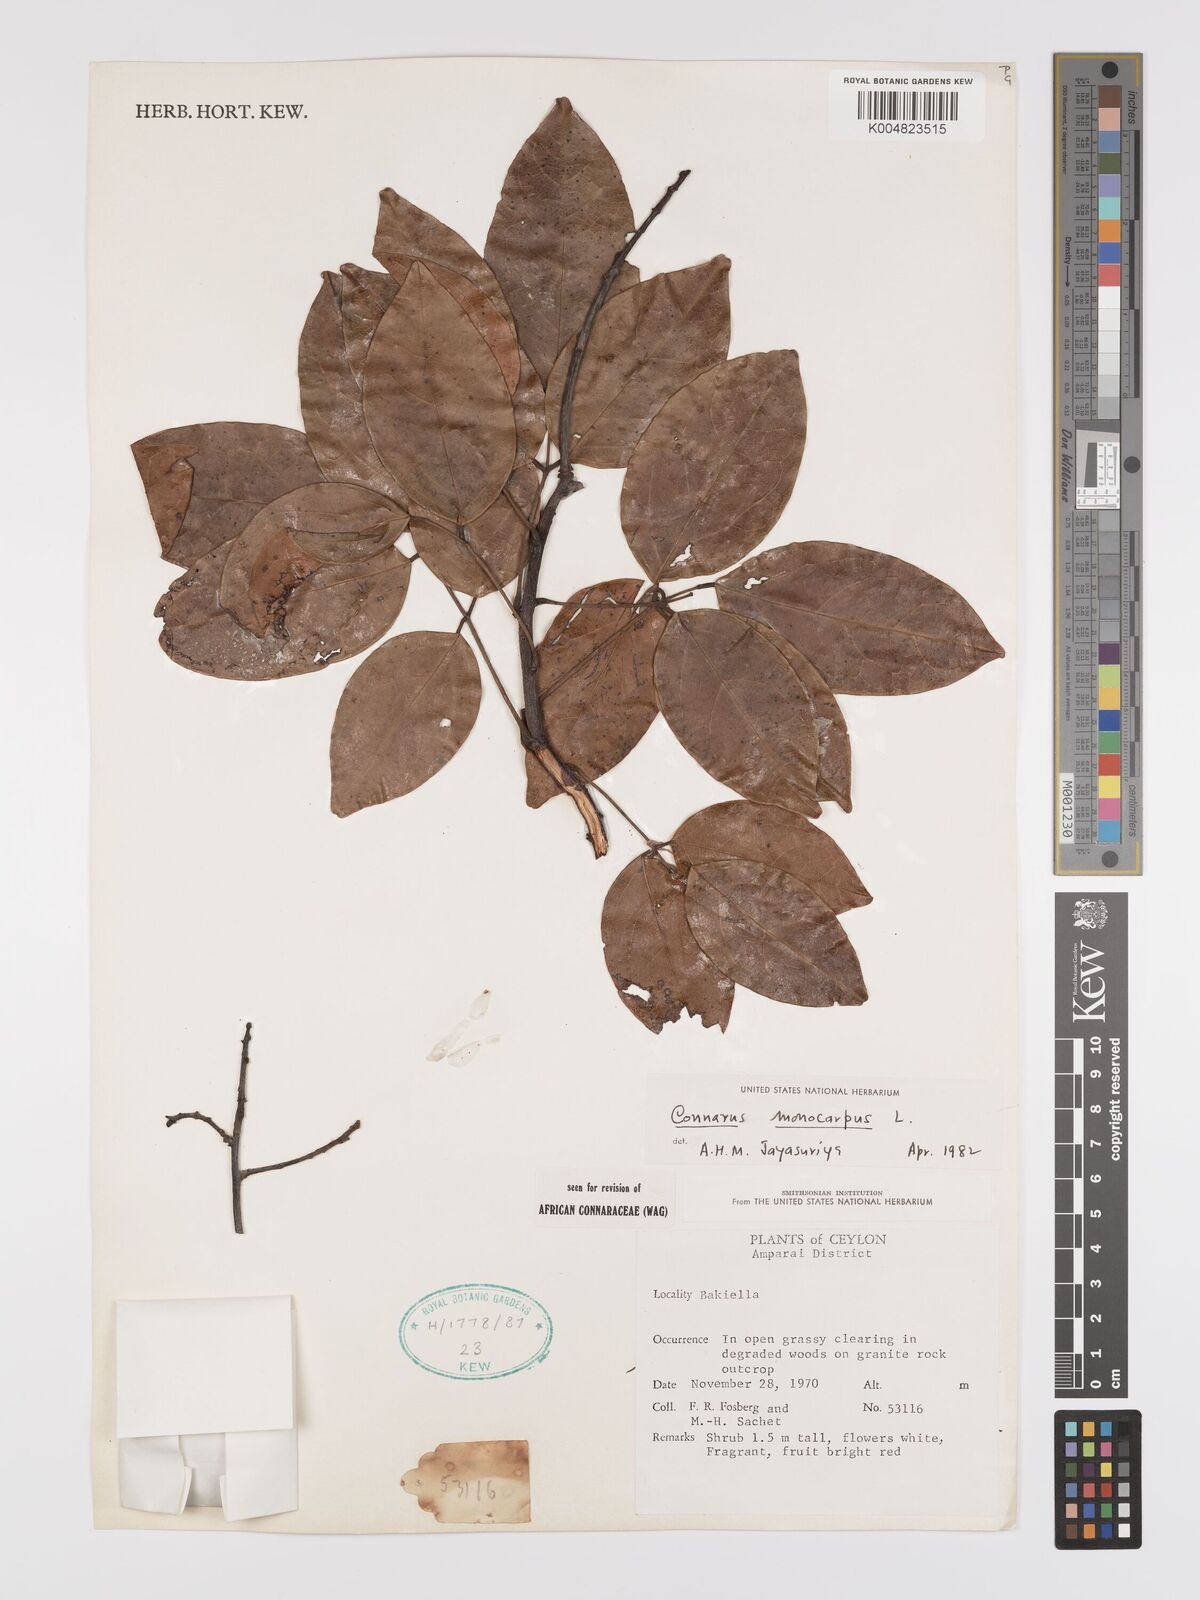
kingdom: Plantae
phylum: Tracheophyta
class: Magnoliopsida
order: Oxalidales
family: Connaraceae
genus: Connarus
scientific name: Connarus semidecandrus
